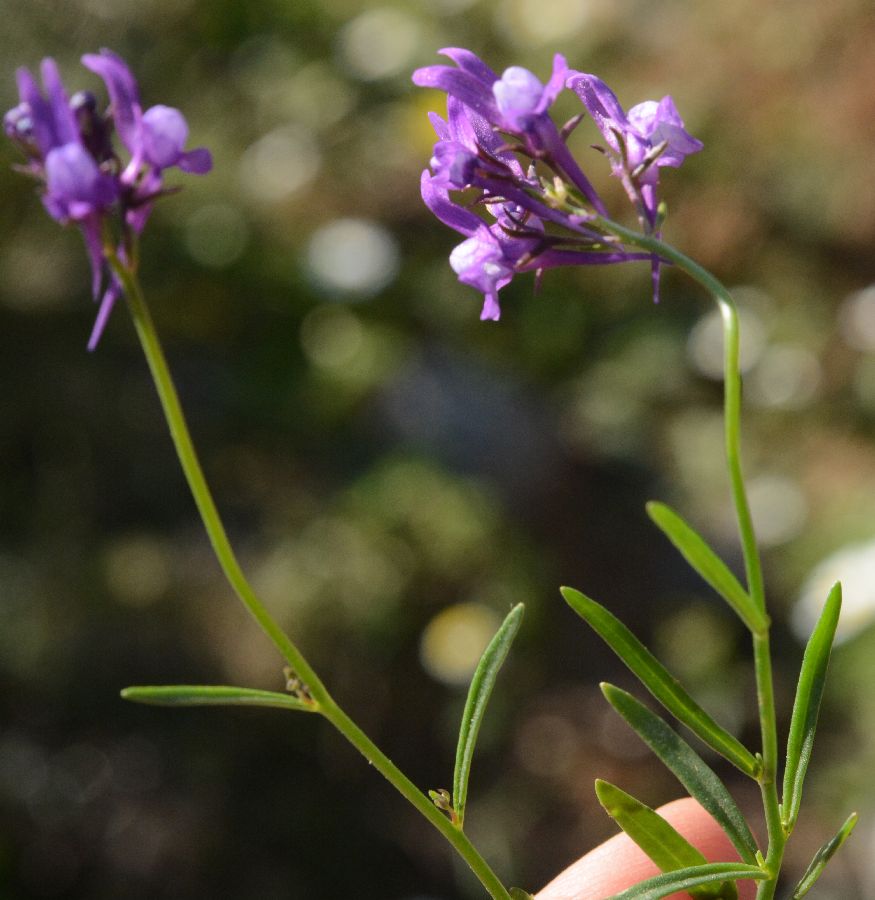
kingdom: Plantae
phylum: Tracheophyta
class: Magnoliopsida
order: Lamiales
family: Plantaginaceae
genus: Linaria
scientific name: Linaria pelisseriana
